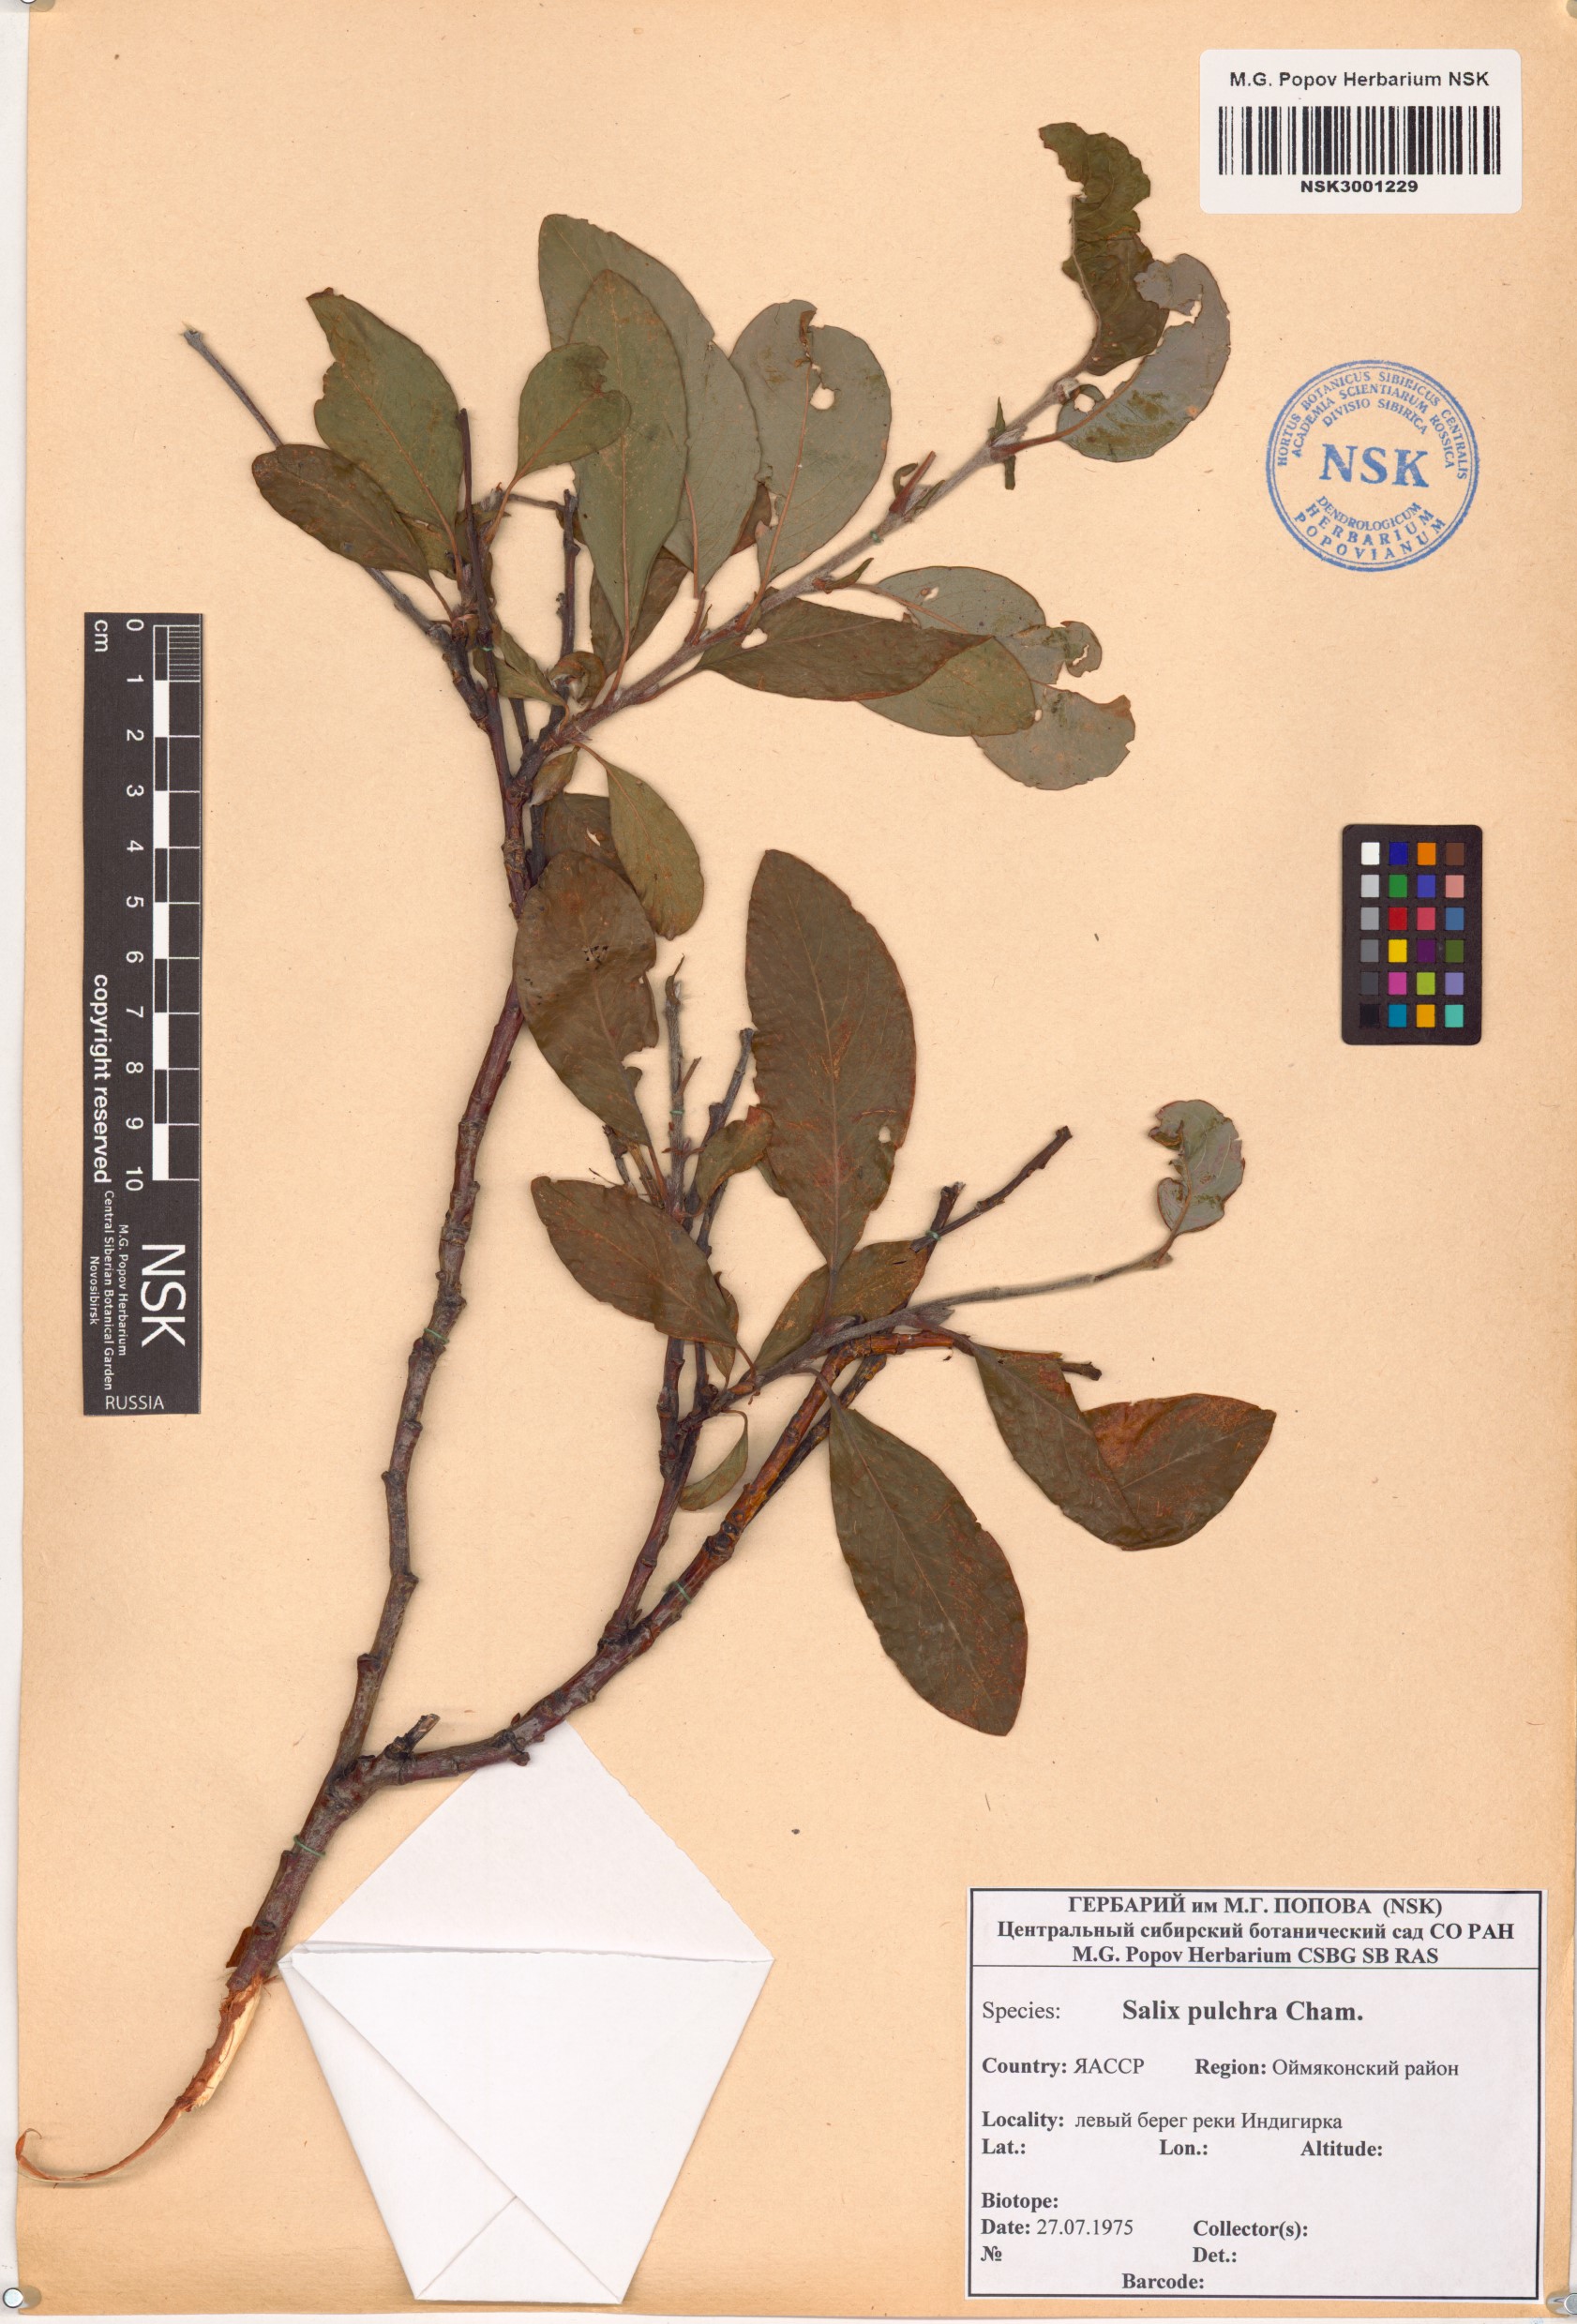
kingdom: Plantae
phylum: Tracheophyta
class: Magnoliopsida
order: Malpighiales
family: Salicaceae
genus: Salix
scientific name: Salix pulchra
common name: Diamond-leaved willow
